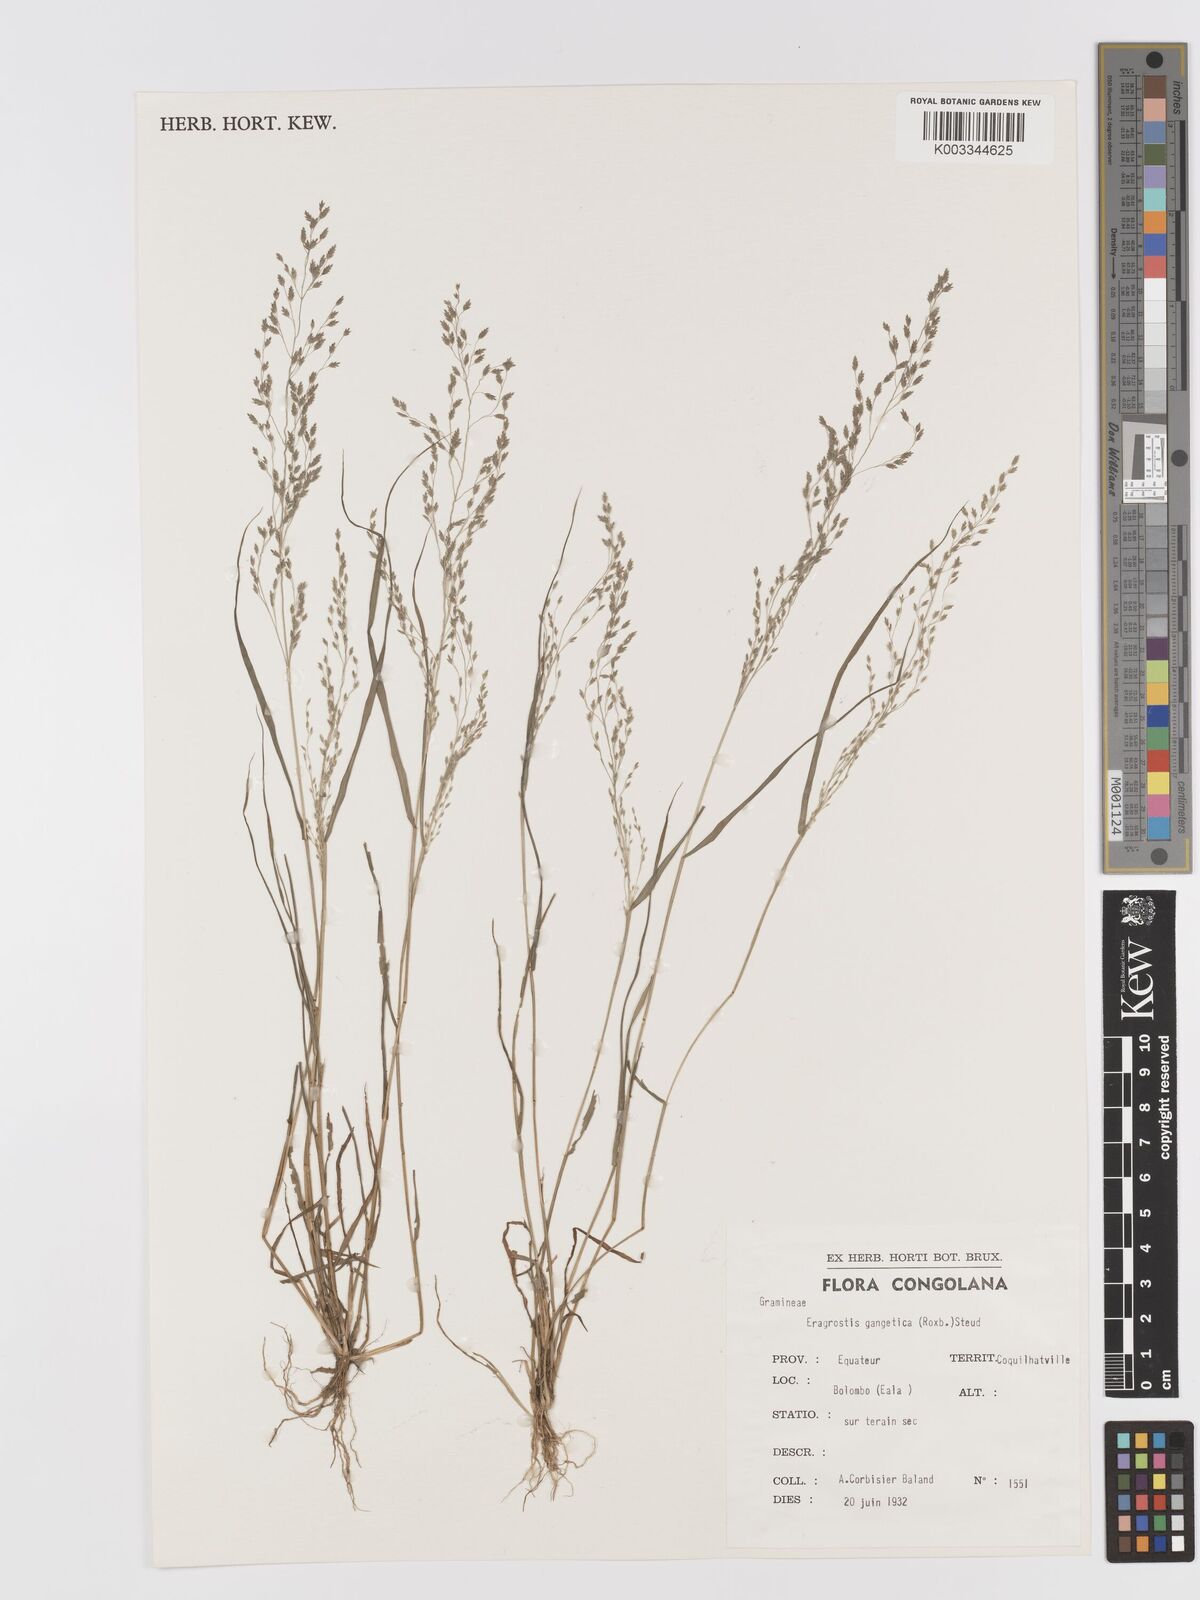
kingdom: Plantae
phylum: Tracheophyta
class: Liliopsida
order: Poales
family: Poaceae
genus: Eragrostis
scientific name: Eragrostis gangetica
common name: Slimflower lovegrass
